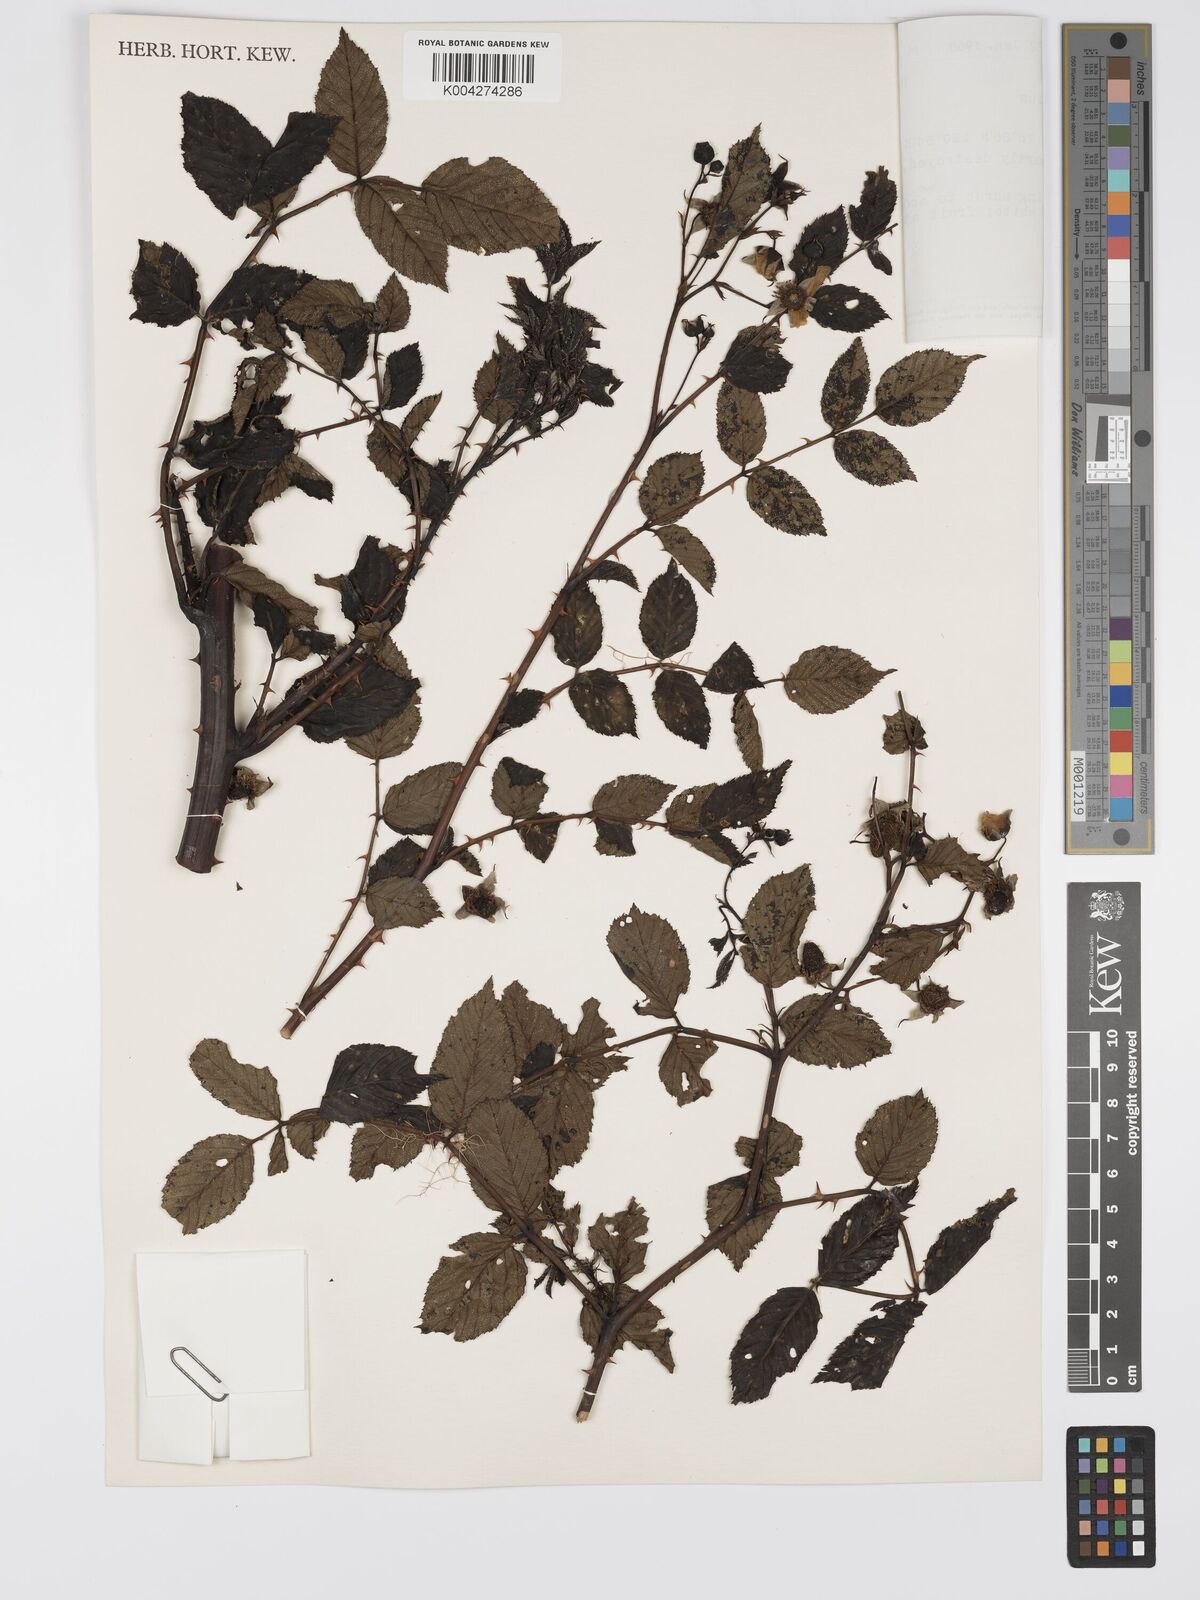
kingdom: Plantae
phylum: Tracheophyta
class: Magnoliopsida
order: Rosales
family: Rosaceae
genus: Rubus
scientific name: Rubus fraxinifolius
